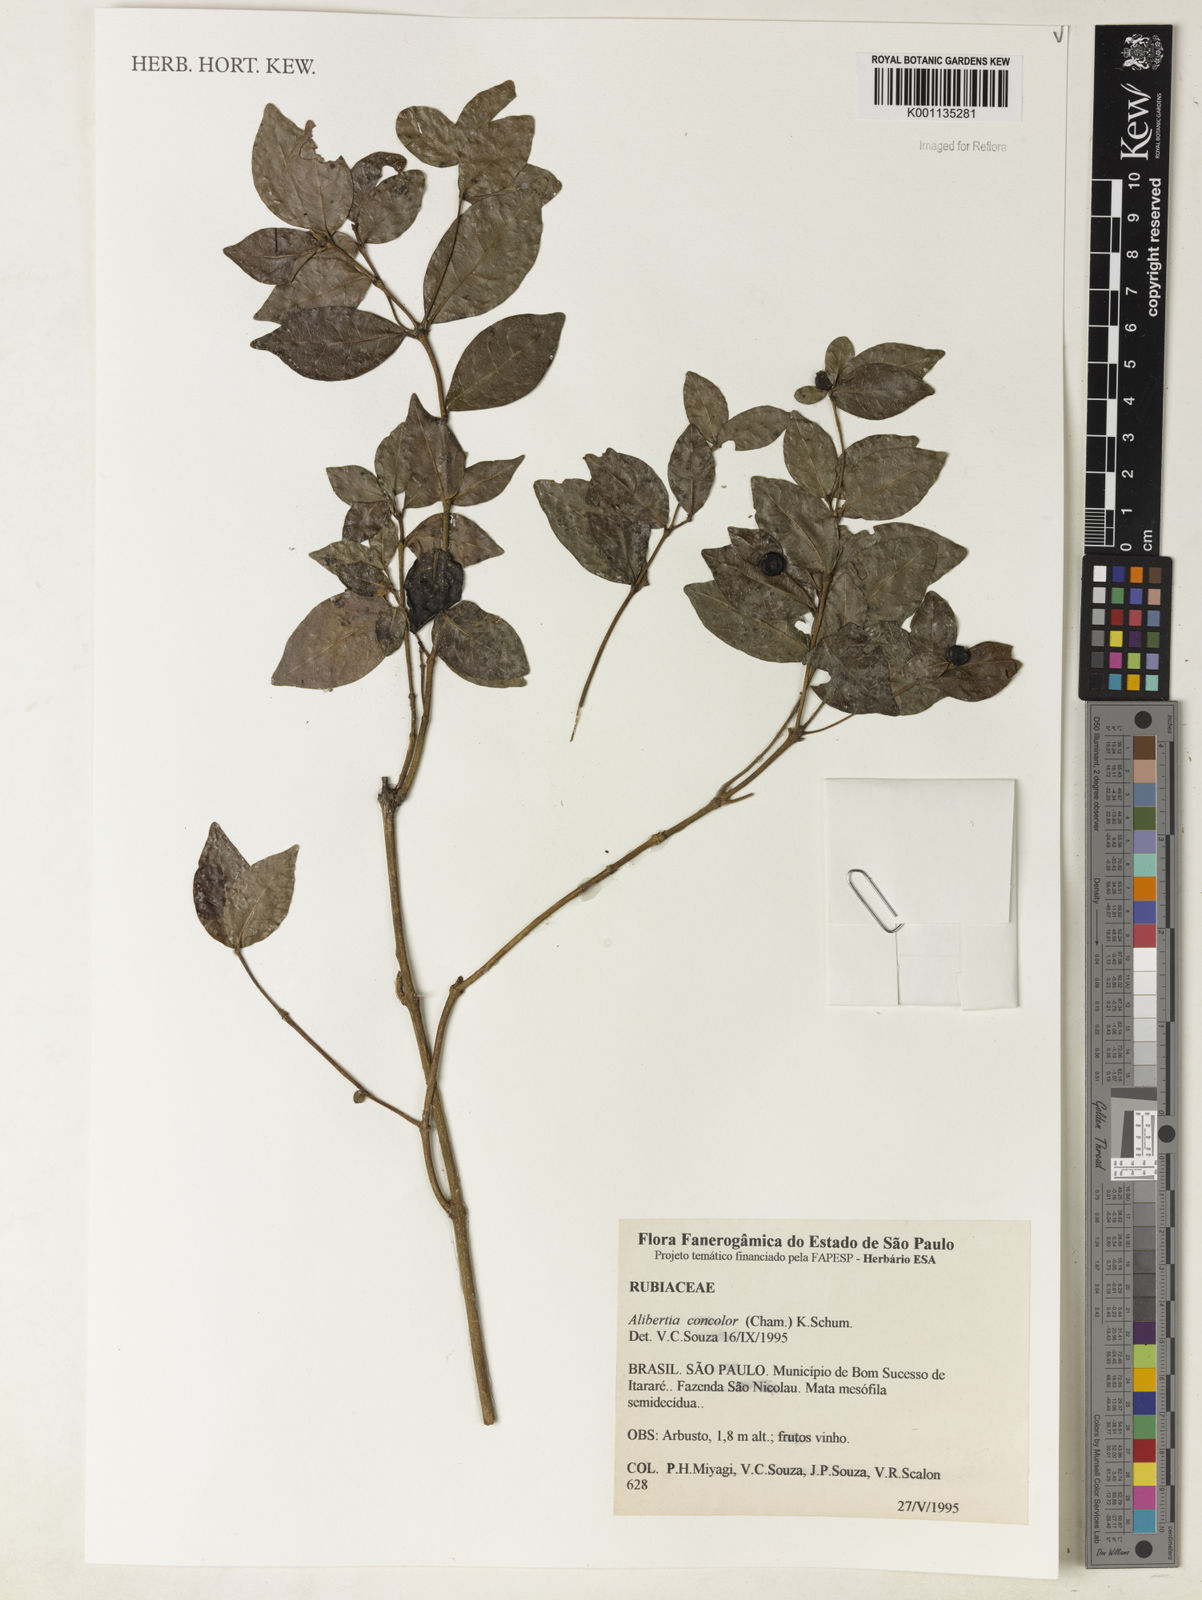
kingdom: Plantae
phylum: Tracheophyta
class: Magnoliopsida
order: Gentianales
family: Rubiaceae
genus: Cordiera
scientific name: Cordiera concolor
